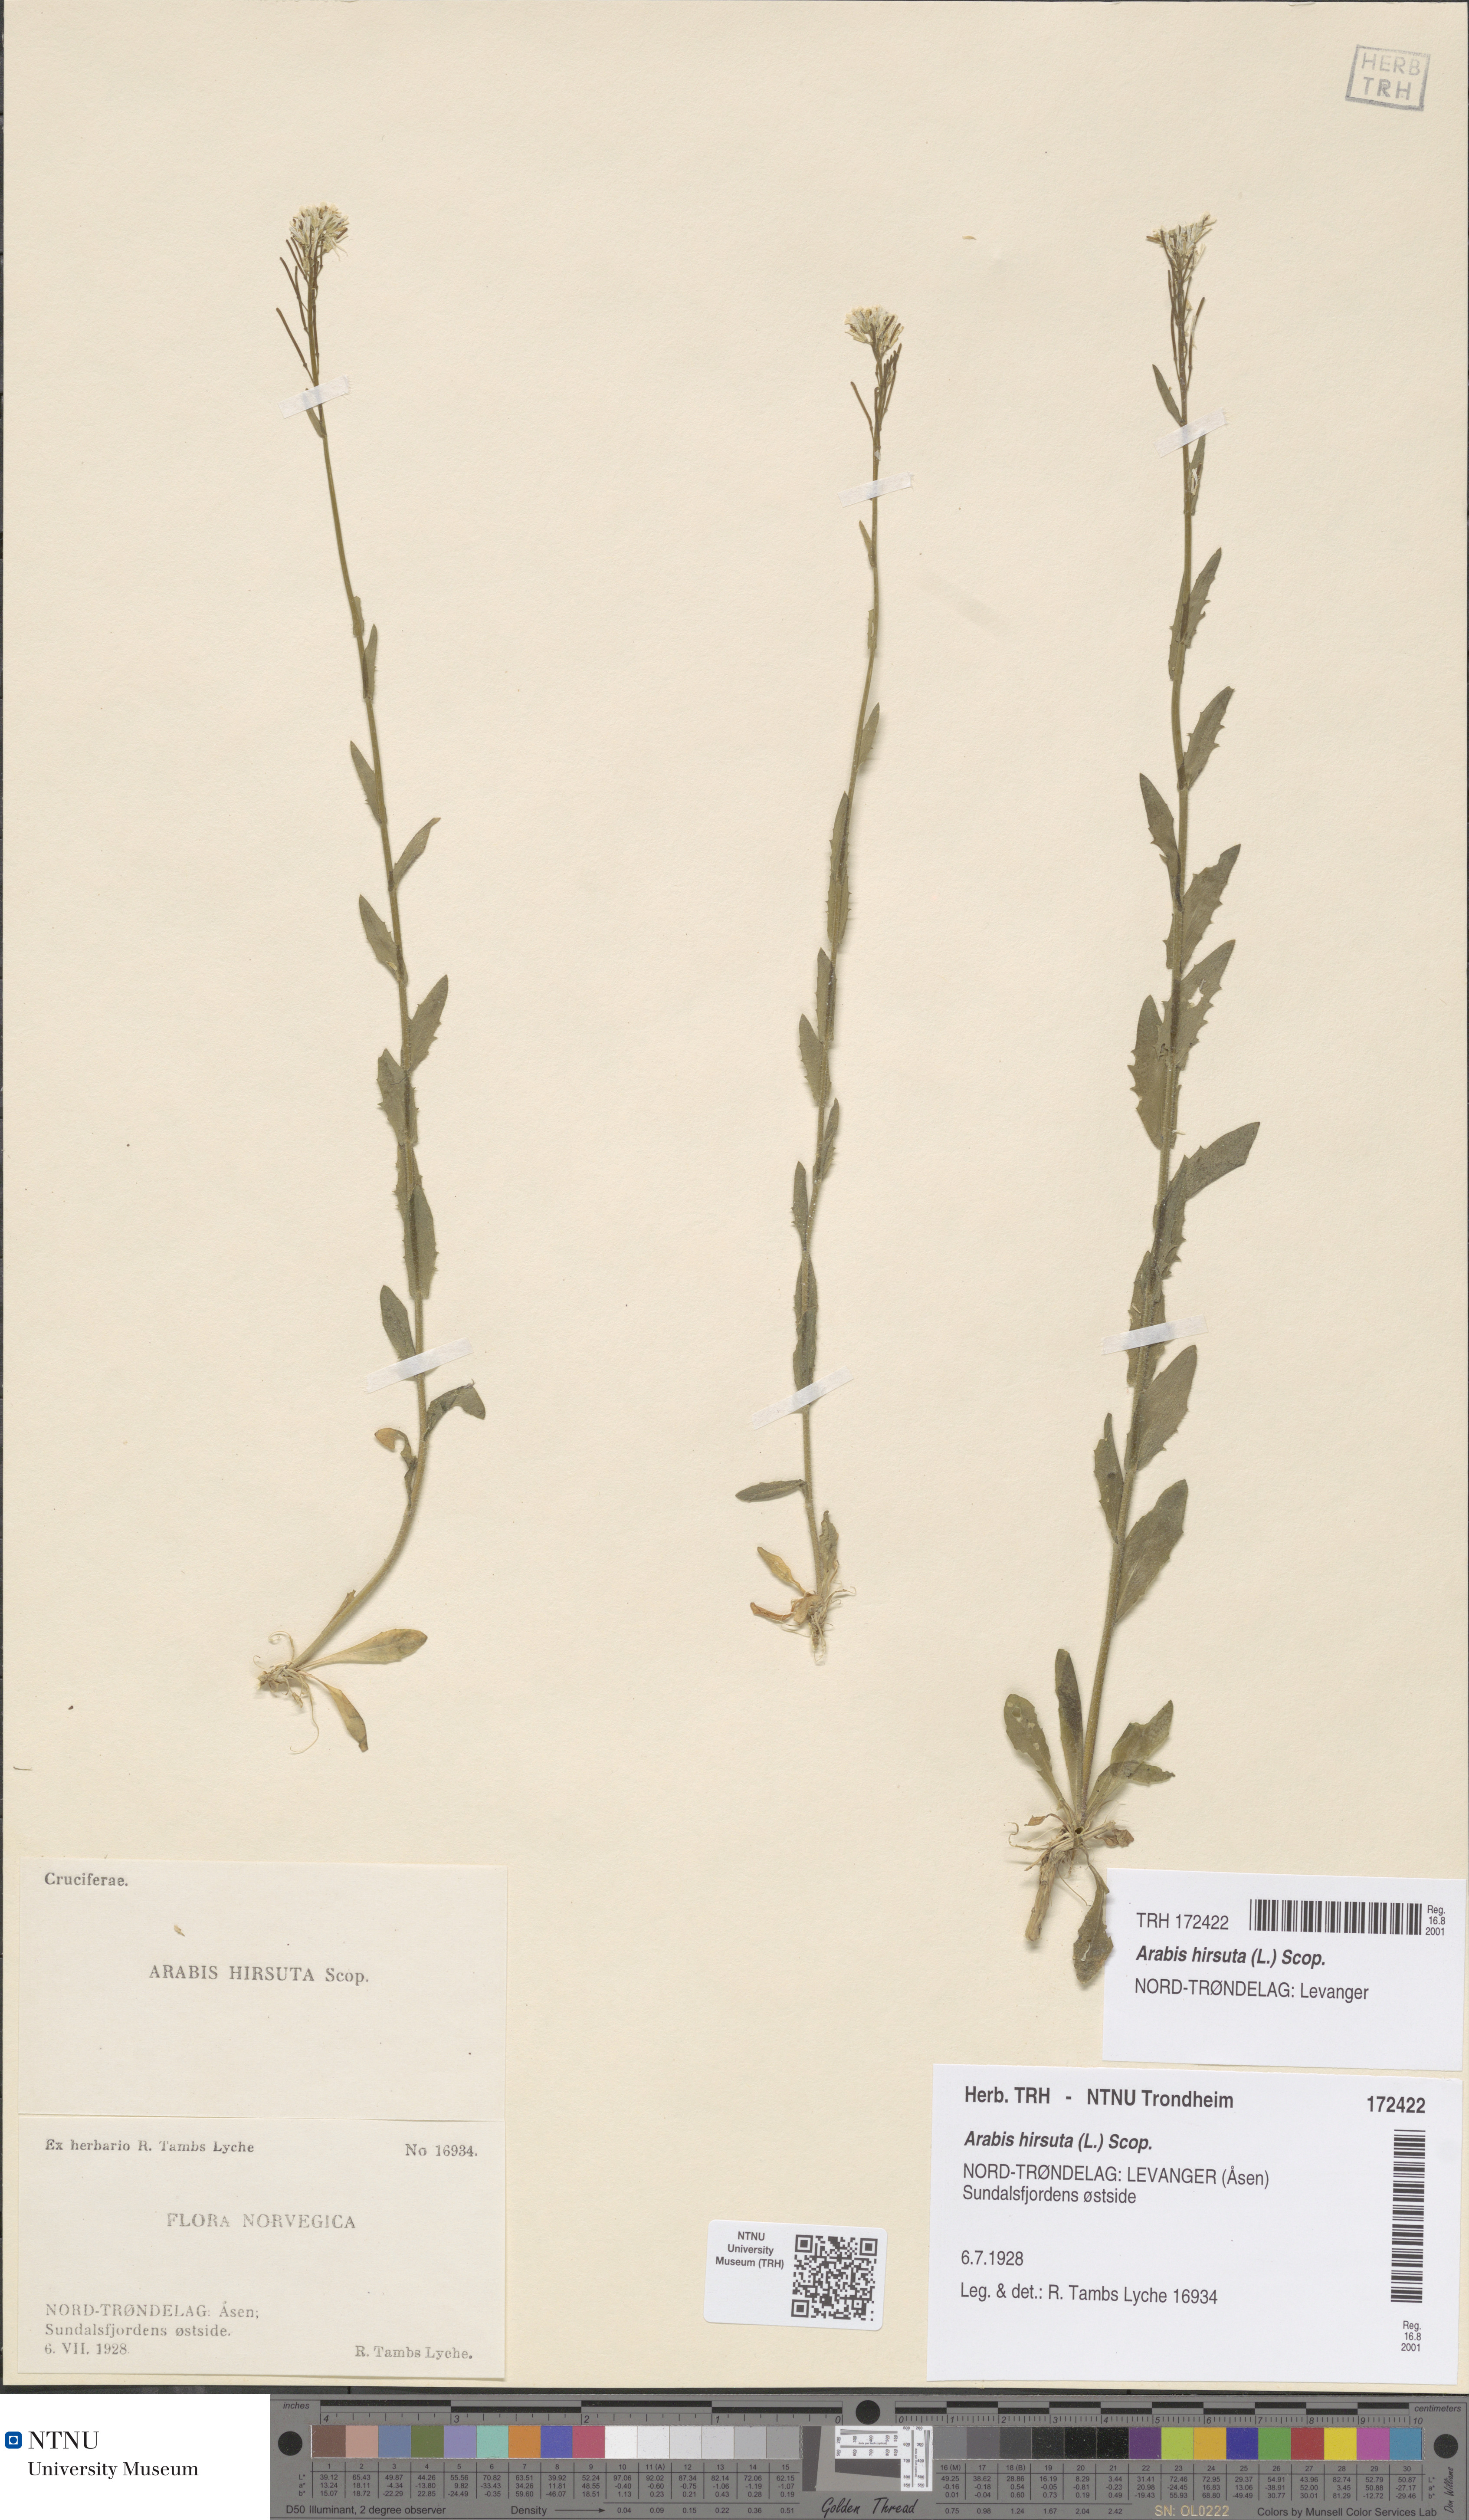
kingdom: Plantae
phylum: Tracheophyta
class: Magnoliopsida
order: Brassicales
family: Brassicaceae
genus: Arabis
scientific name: Arabis hirsuta
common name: Hairy rock-cress
